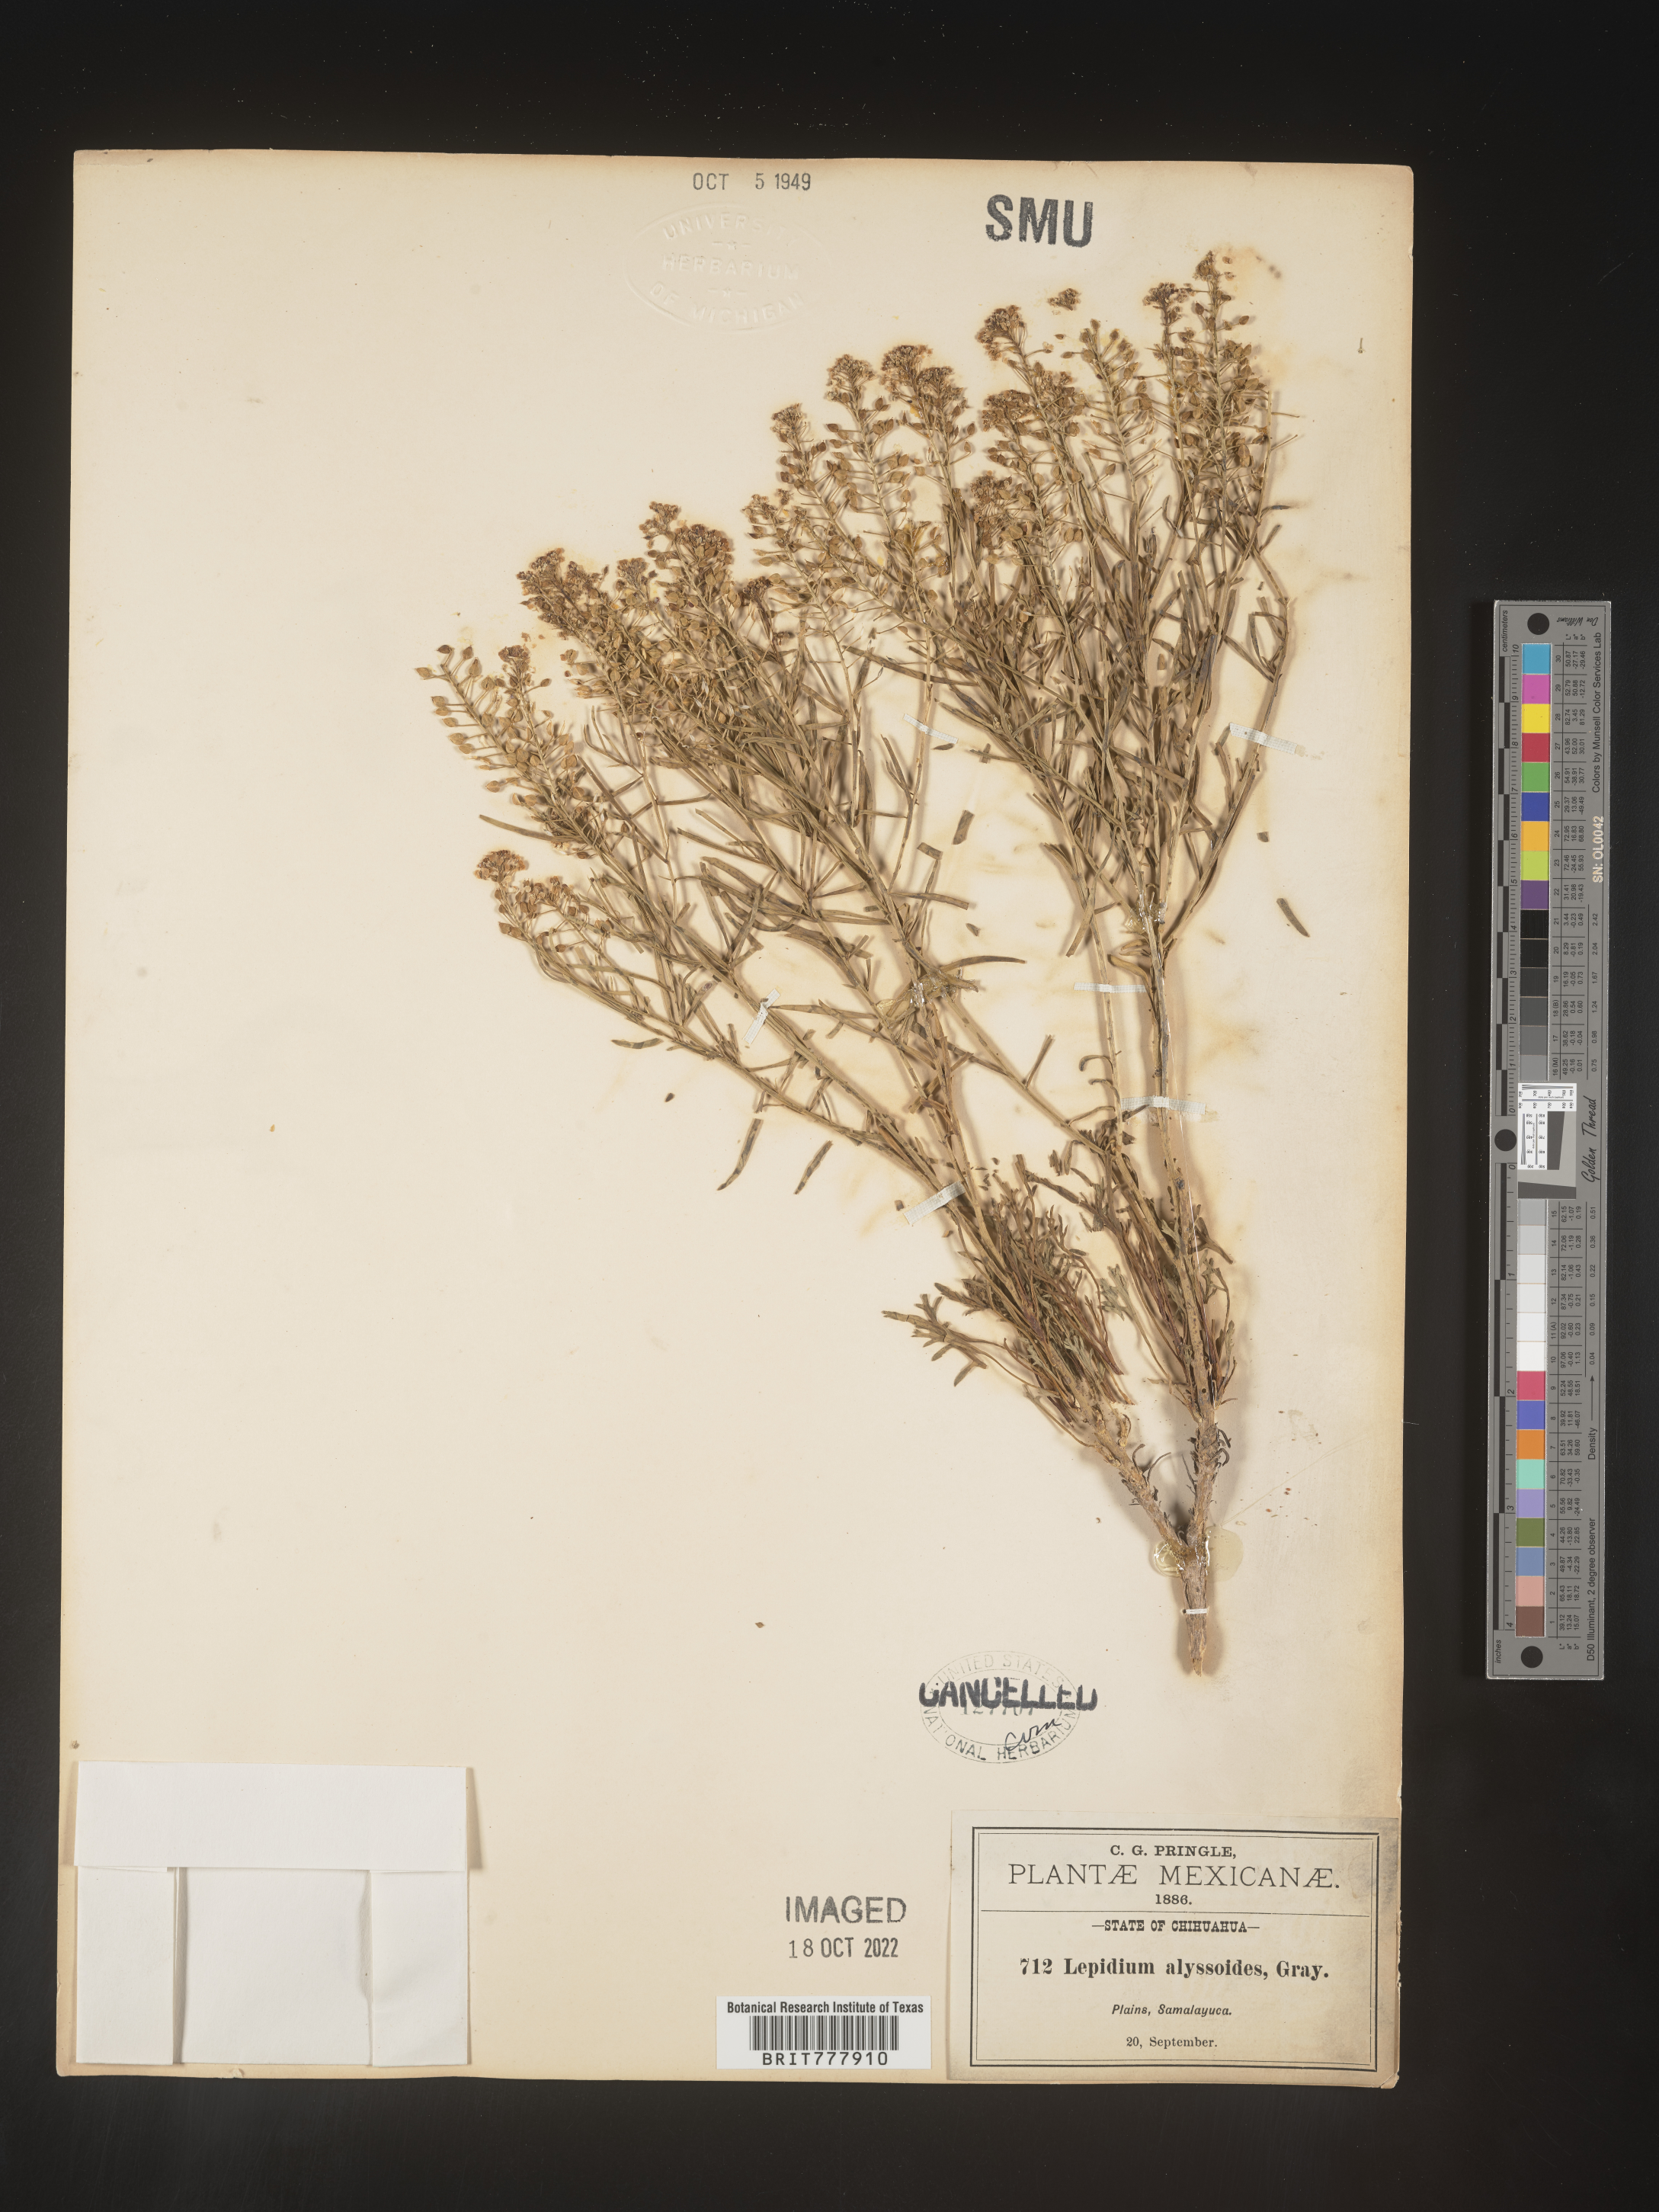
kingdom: Plantae
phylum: Tracheophyta
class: Magnoliopsida
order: Brassicales
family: Brassicaceae
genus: Lepidium
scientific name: Lepidium
